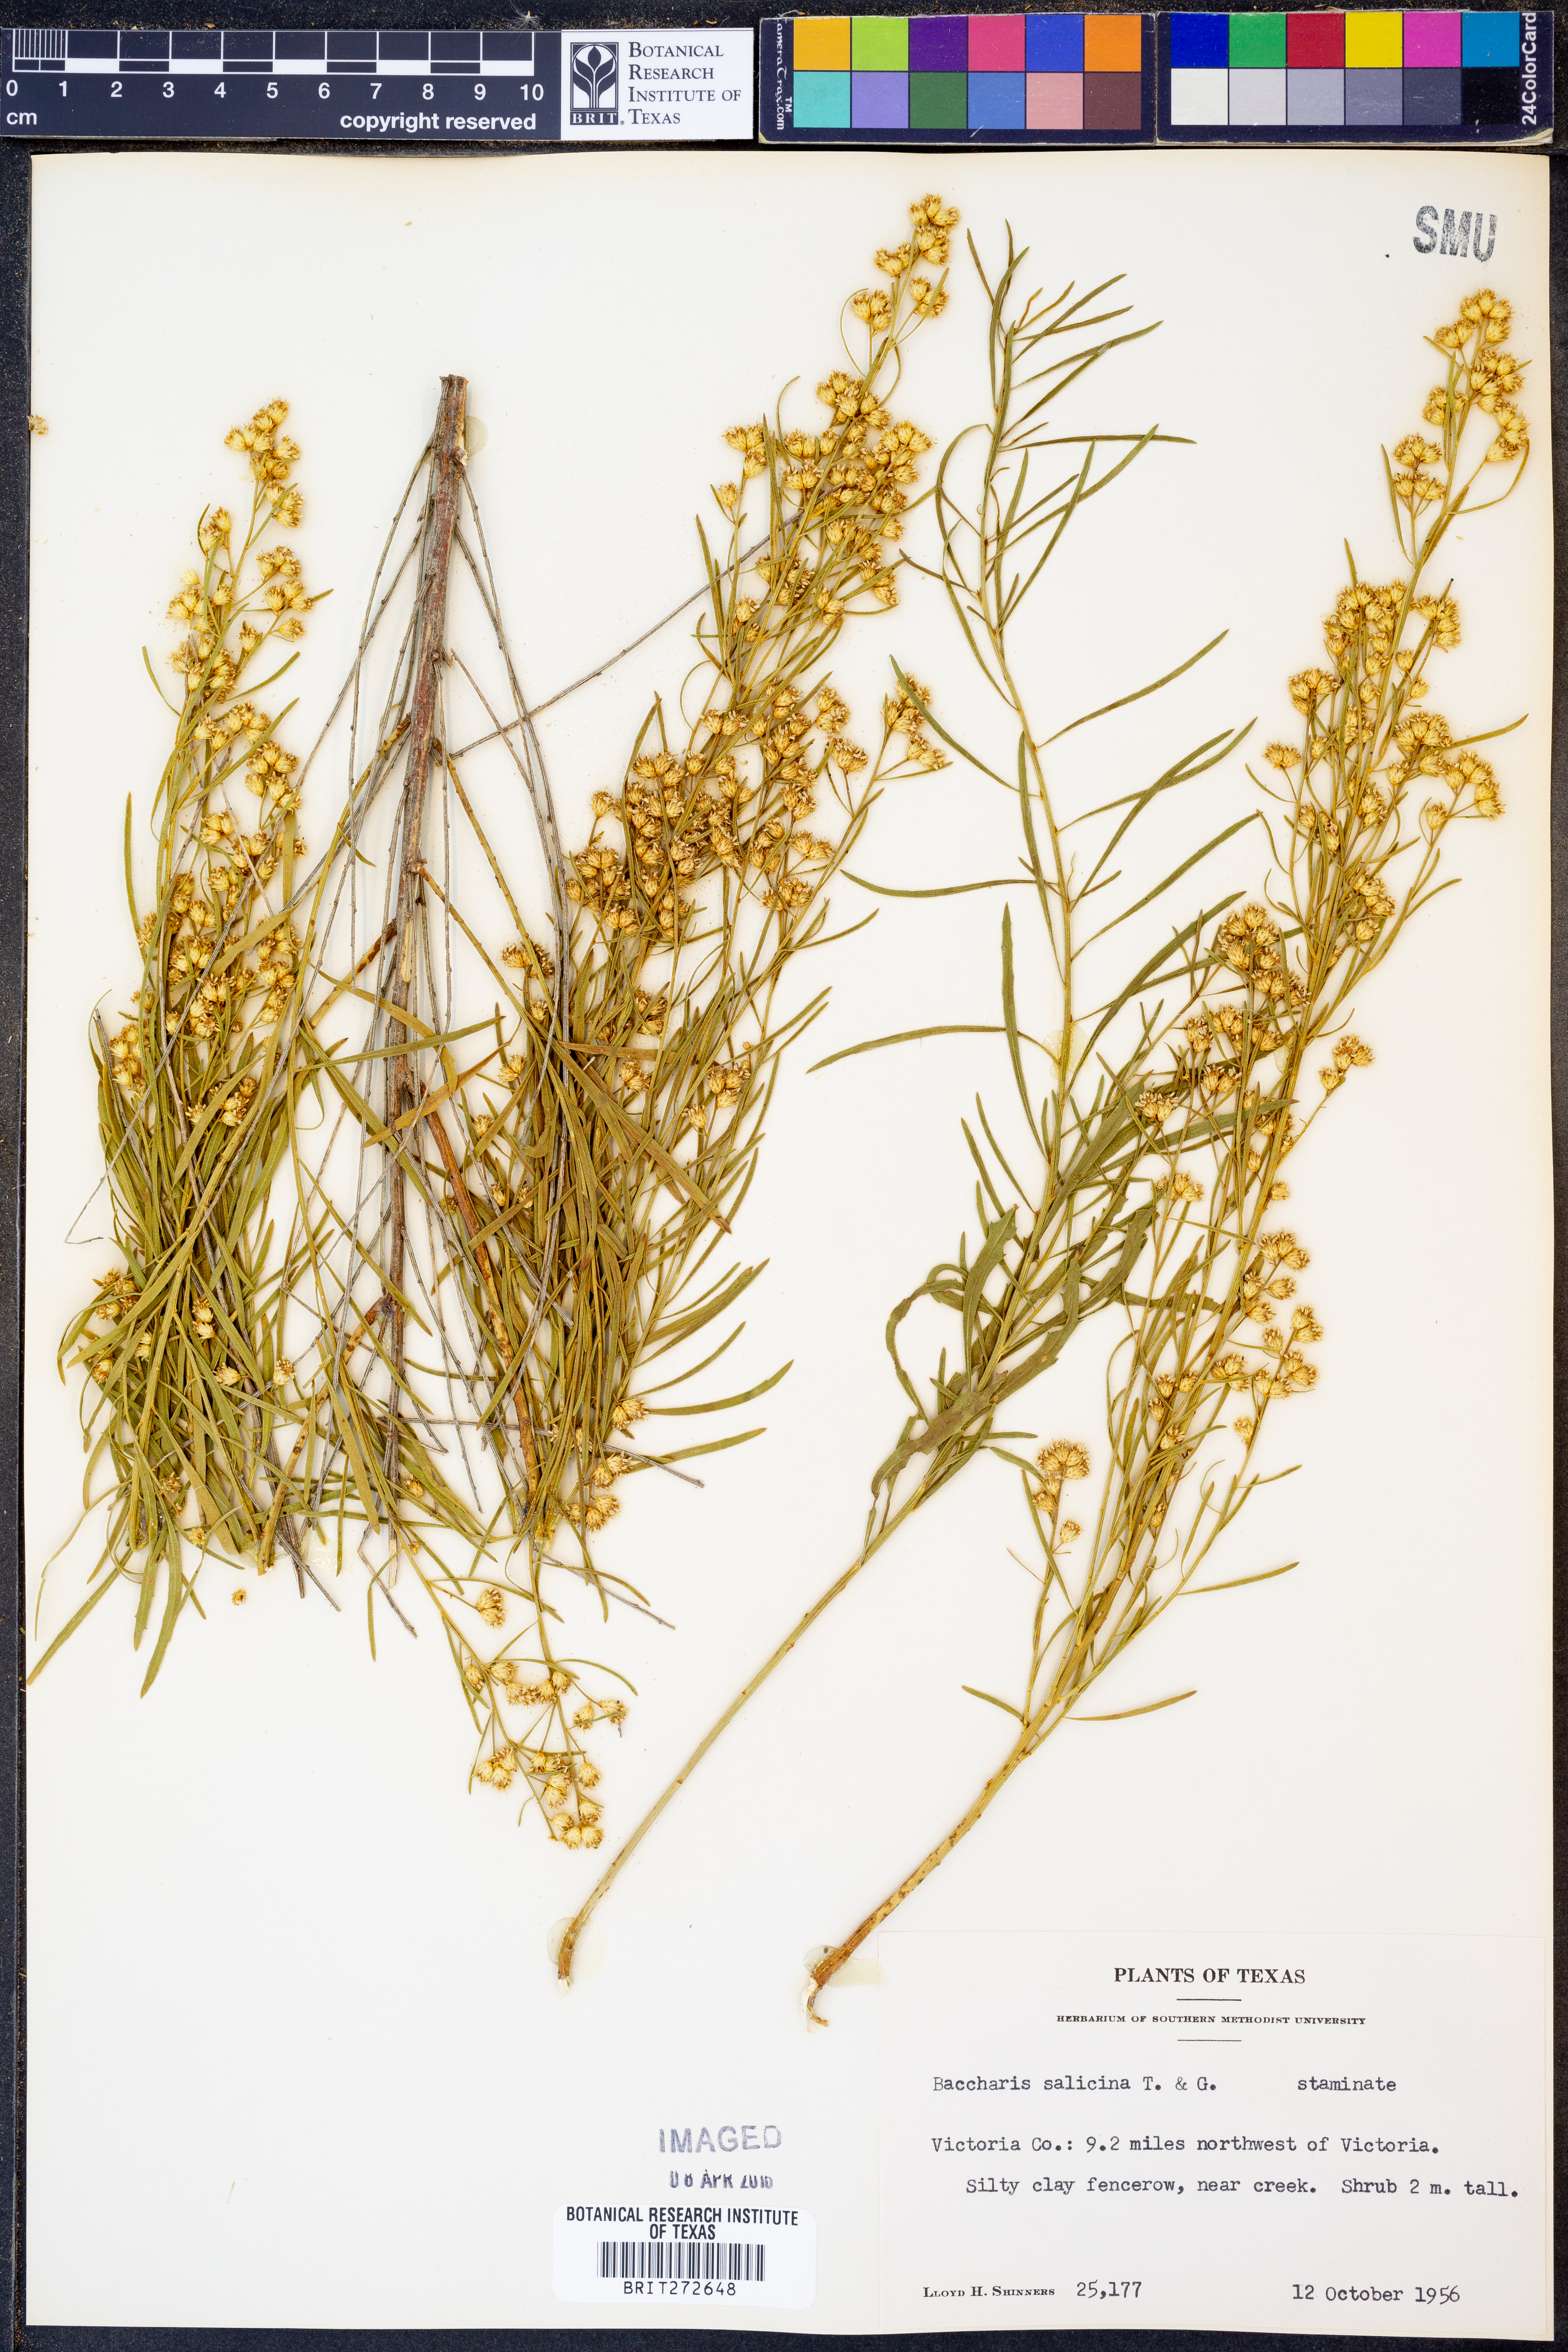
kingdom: Plantae
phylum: Tracheophyta
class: Magnoliopsida
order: Asterales
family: Asteraceae
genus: Baccharis
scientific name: Baccharis salicina
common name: Willow baccharis
